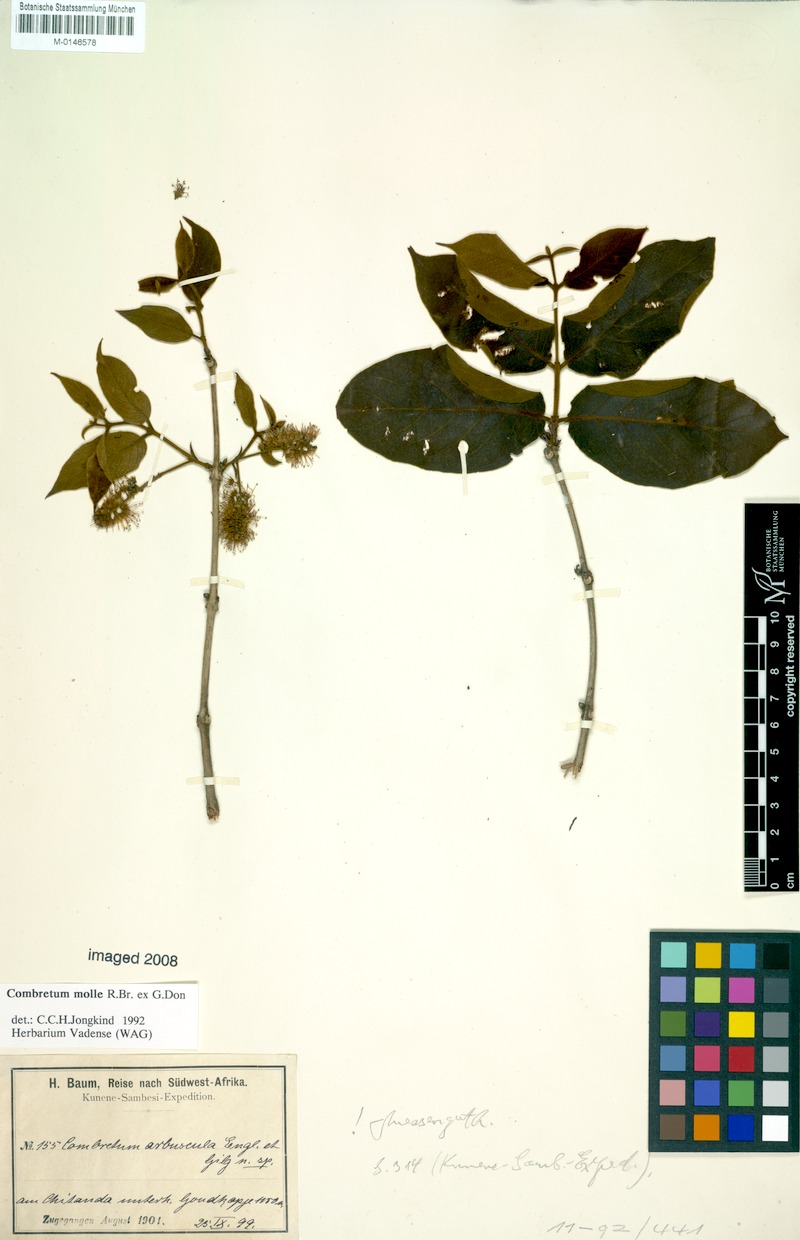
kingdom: Plantae
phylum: Tracheophyta
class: Magnoliopsida
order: Myrtales
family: Combretaceae
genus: Combretum
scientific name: Combretum molle
